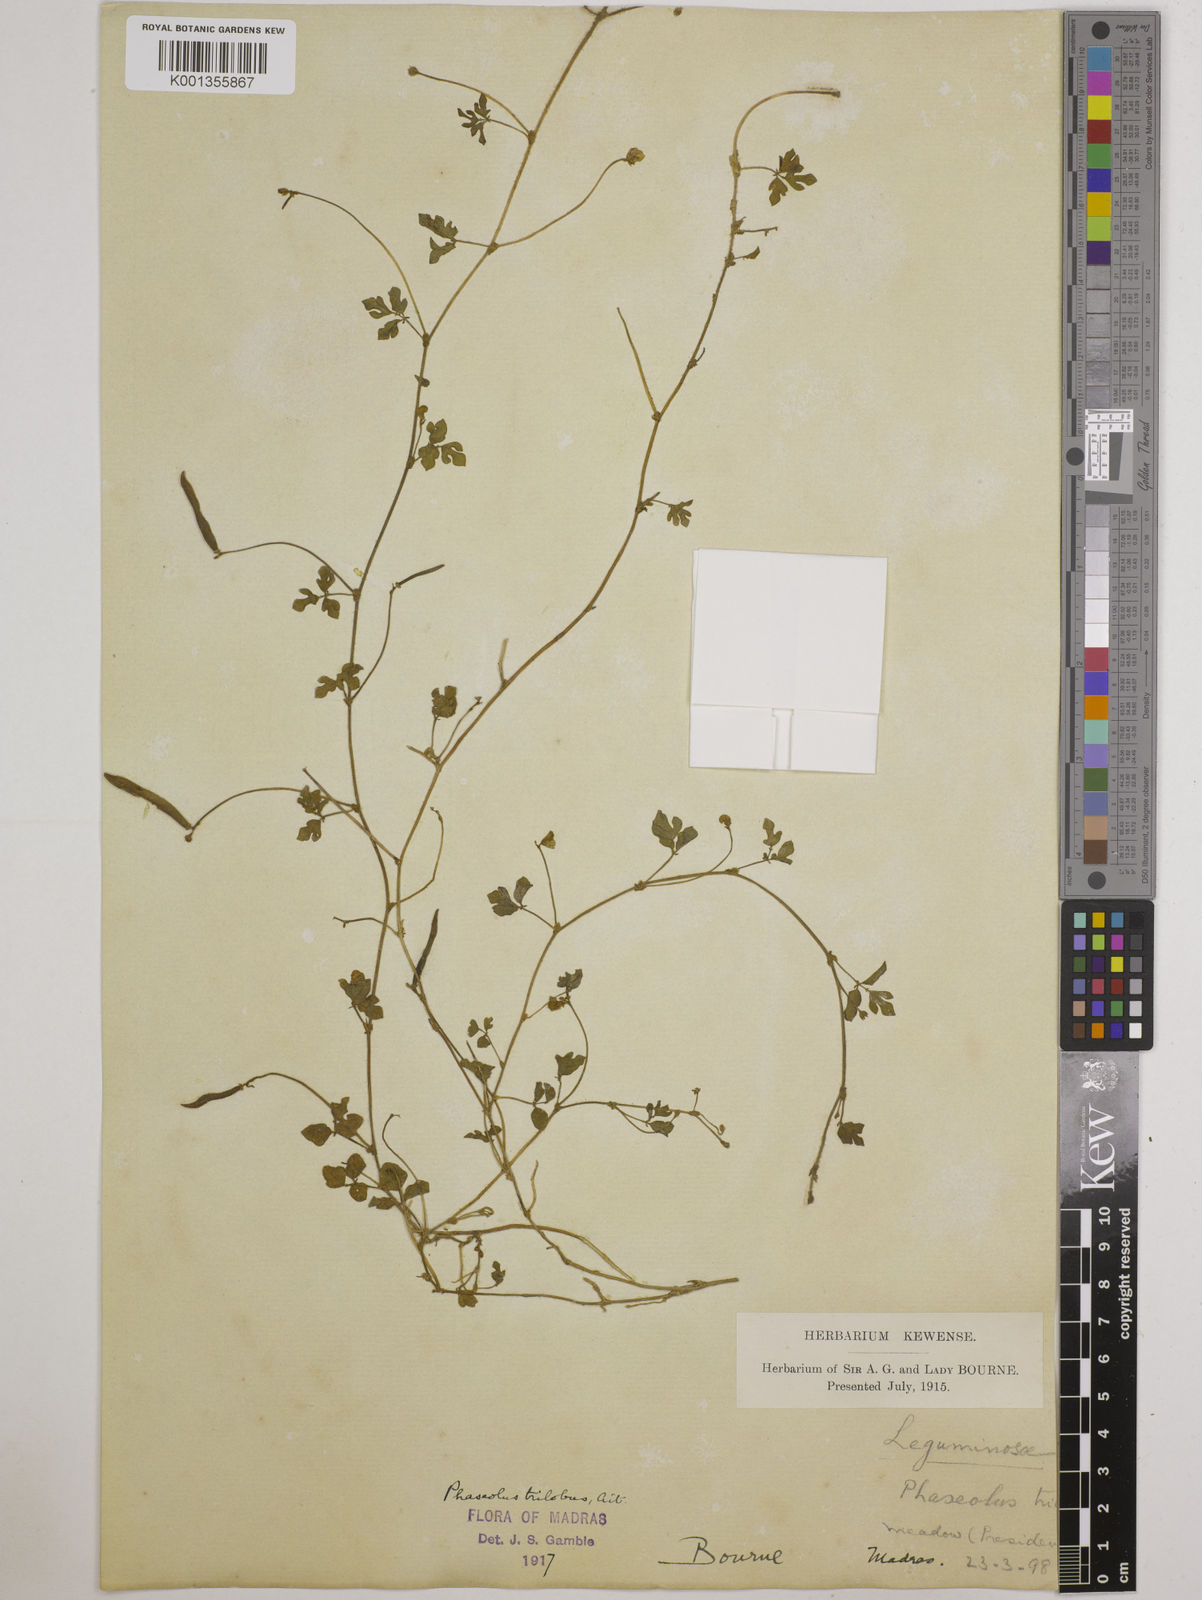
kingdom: Plantae
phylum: Tracheophyta
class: Magnoliopsida
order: Fabales
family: Fabaceae
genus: Vigna
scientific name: Vigna trilobata
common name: Jungli-bean
